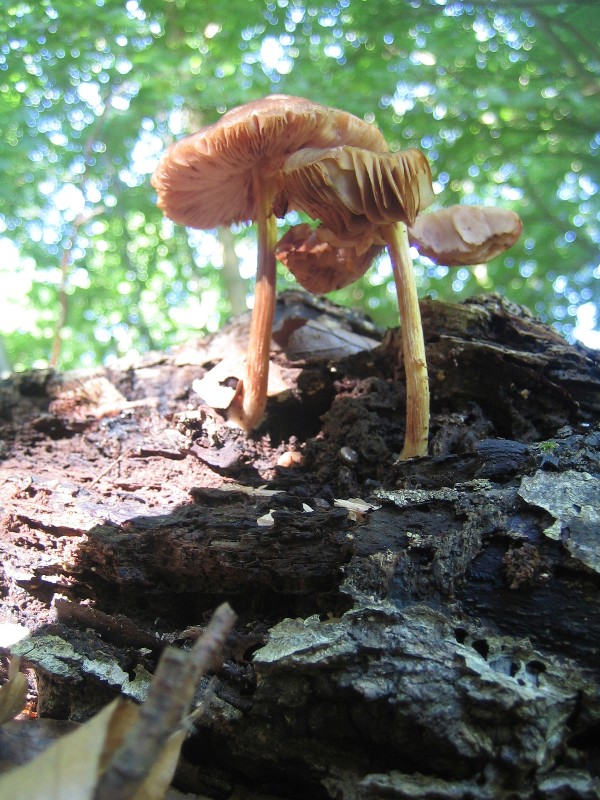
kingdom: Fungi
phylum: Basidiomycota
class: Agaricomycetes
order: Agaricales
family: Pluteaceae
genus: Pluteus
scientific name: Pluteus phlebophorus
